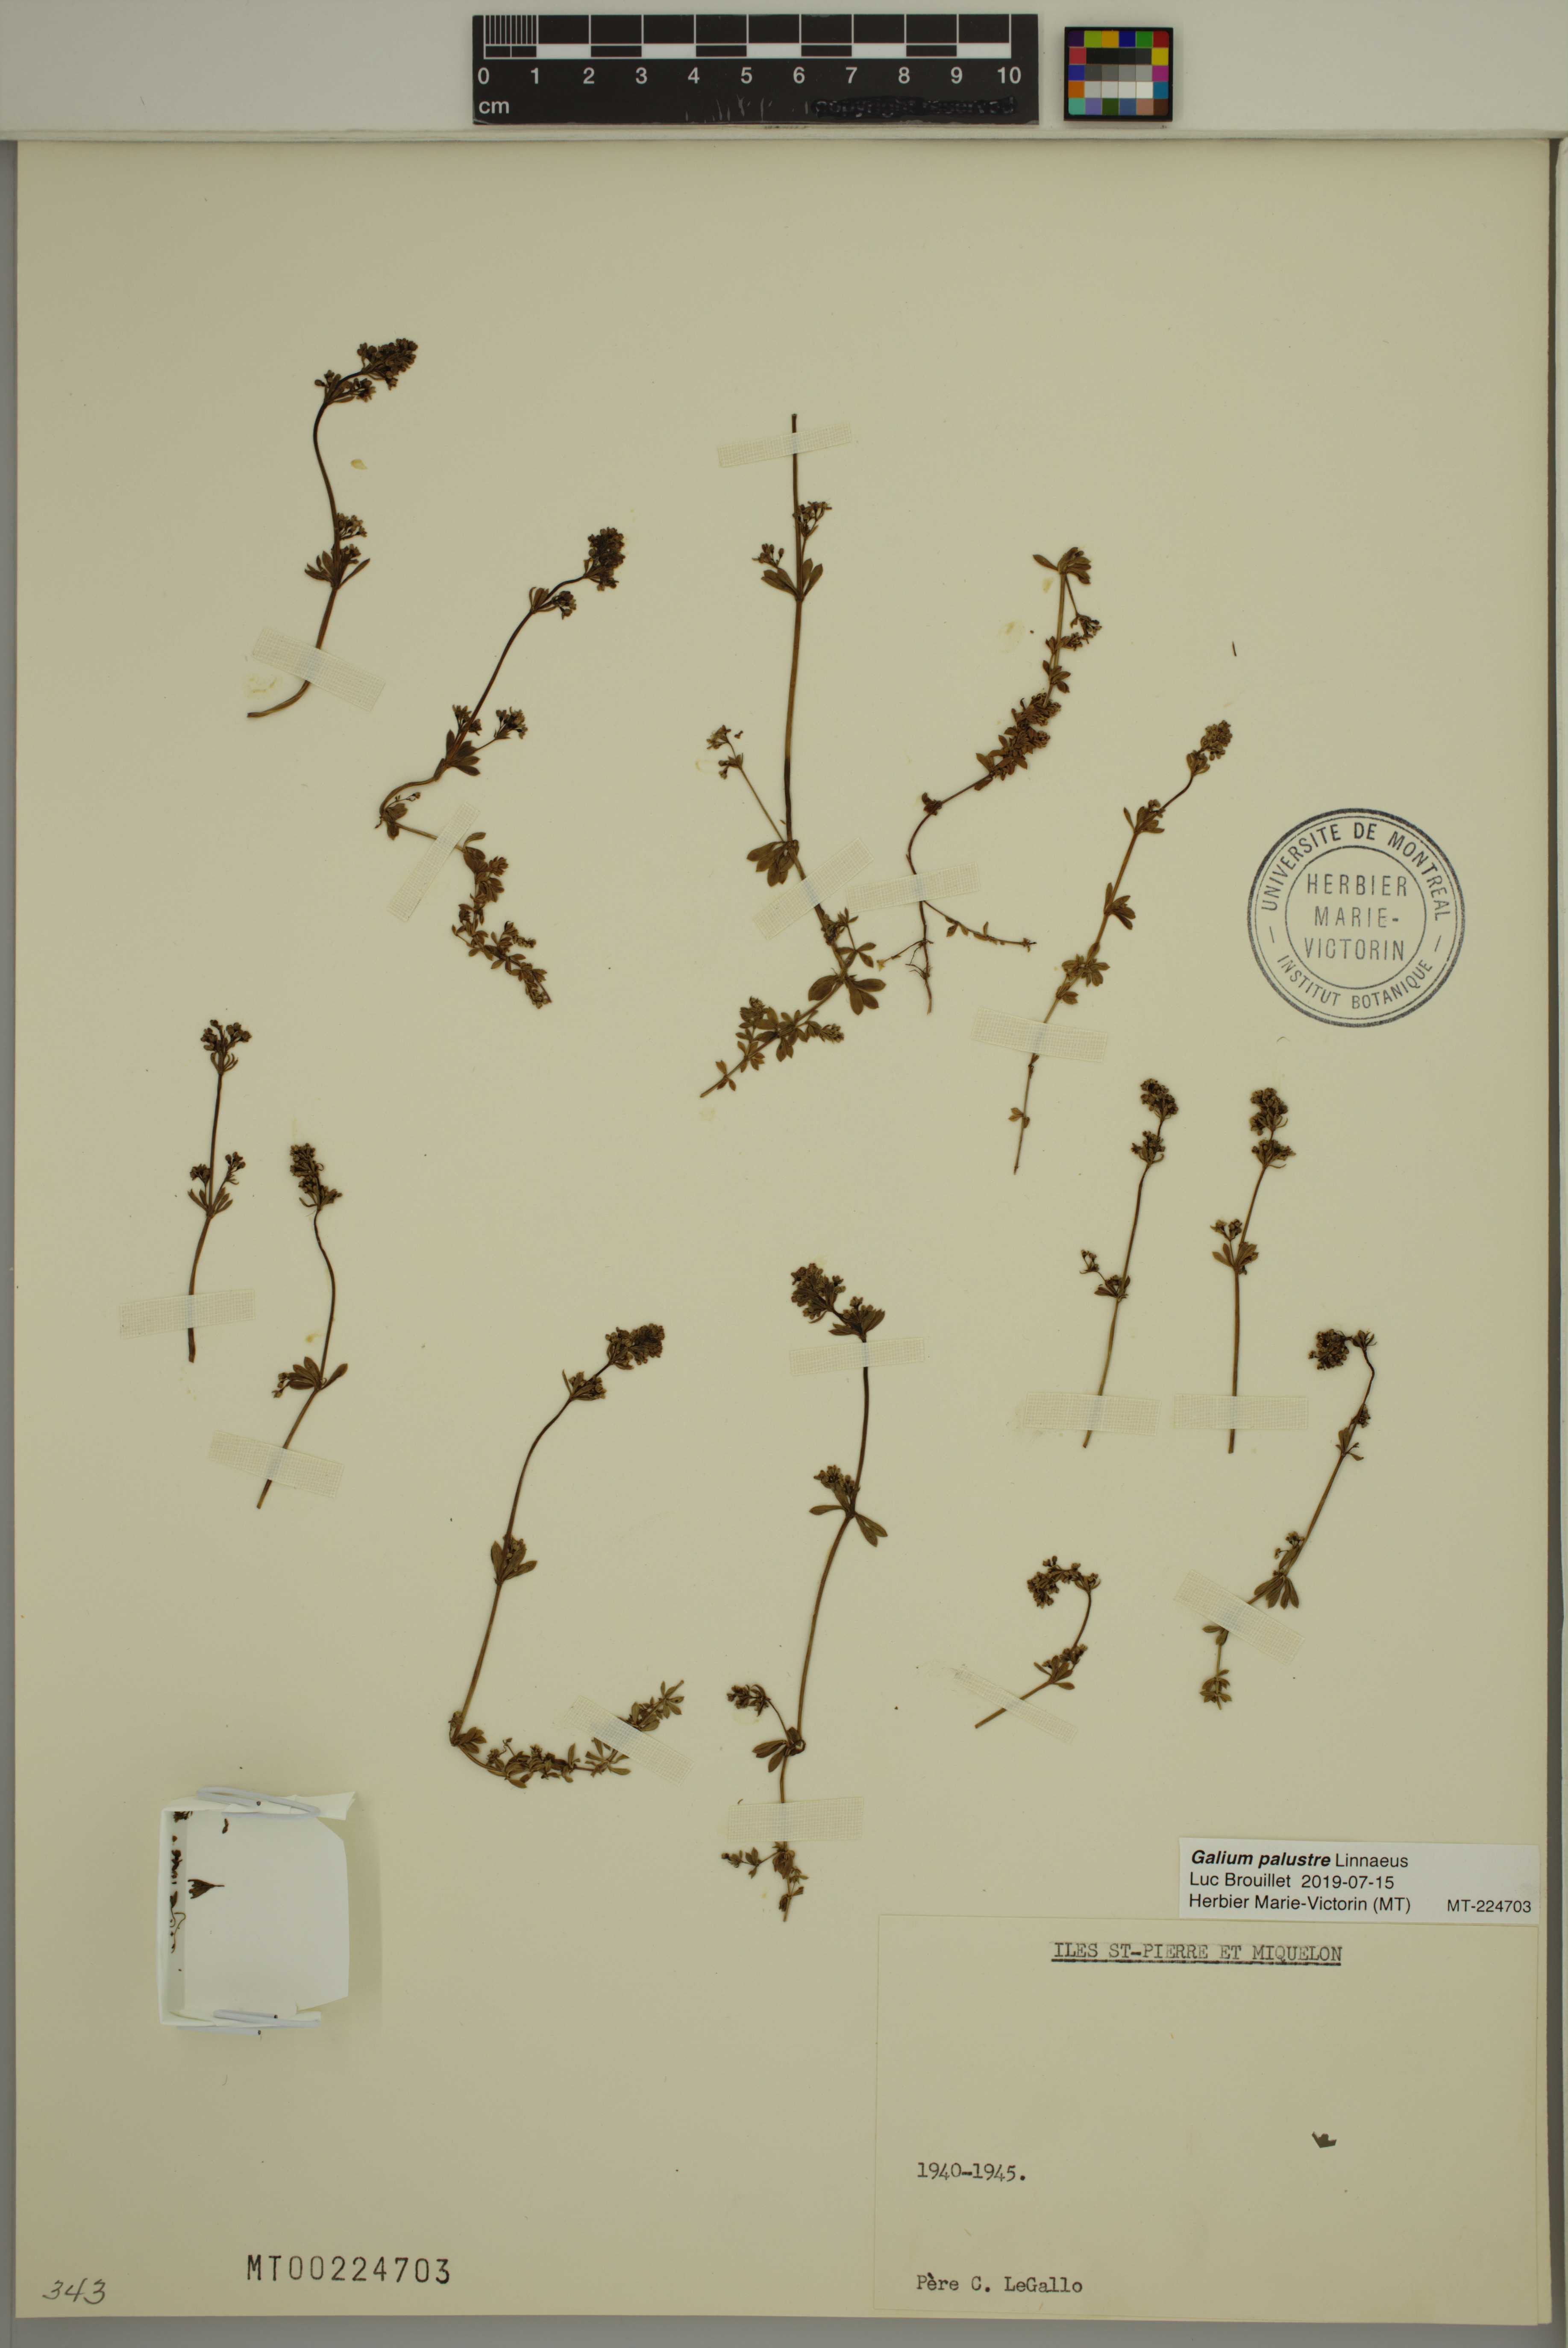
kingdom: Plantae
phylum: Tracheophyta
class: Magnoliopsida
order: Gentianales
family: Rubiaceae
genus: Galium
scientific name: Galium palustre
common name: Common marsh-bedstraw
